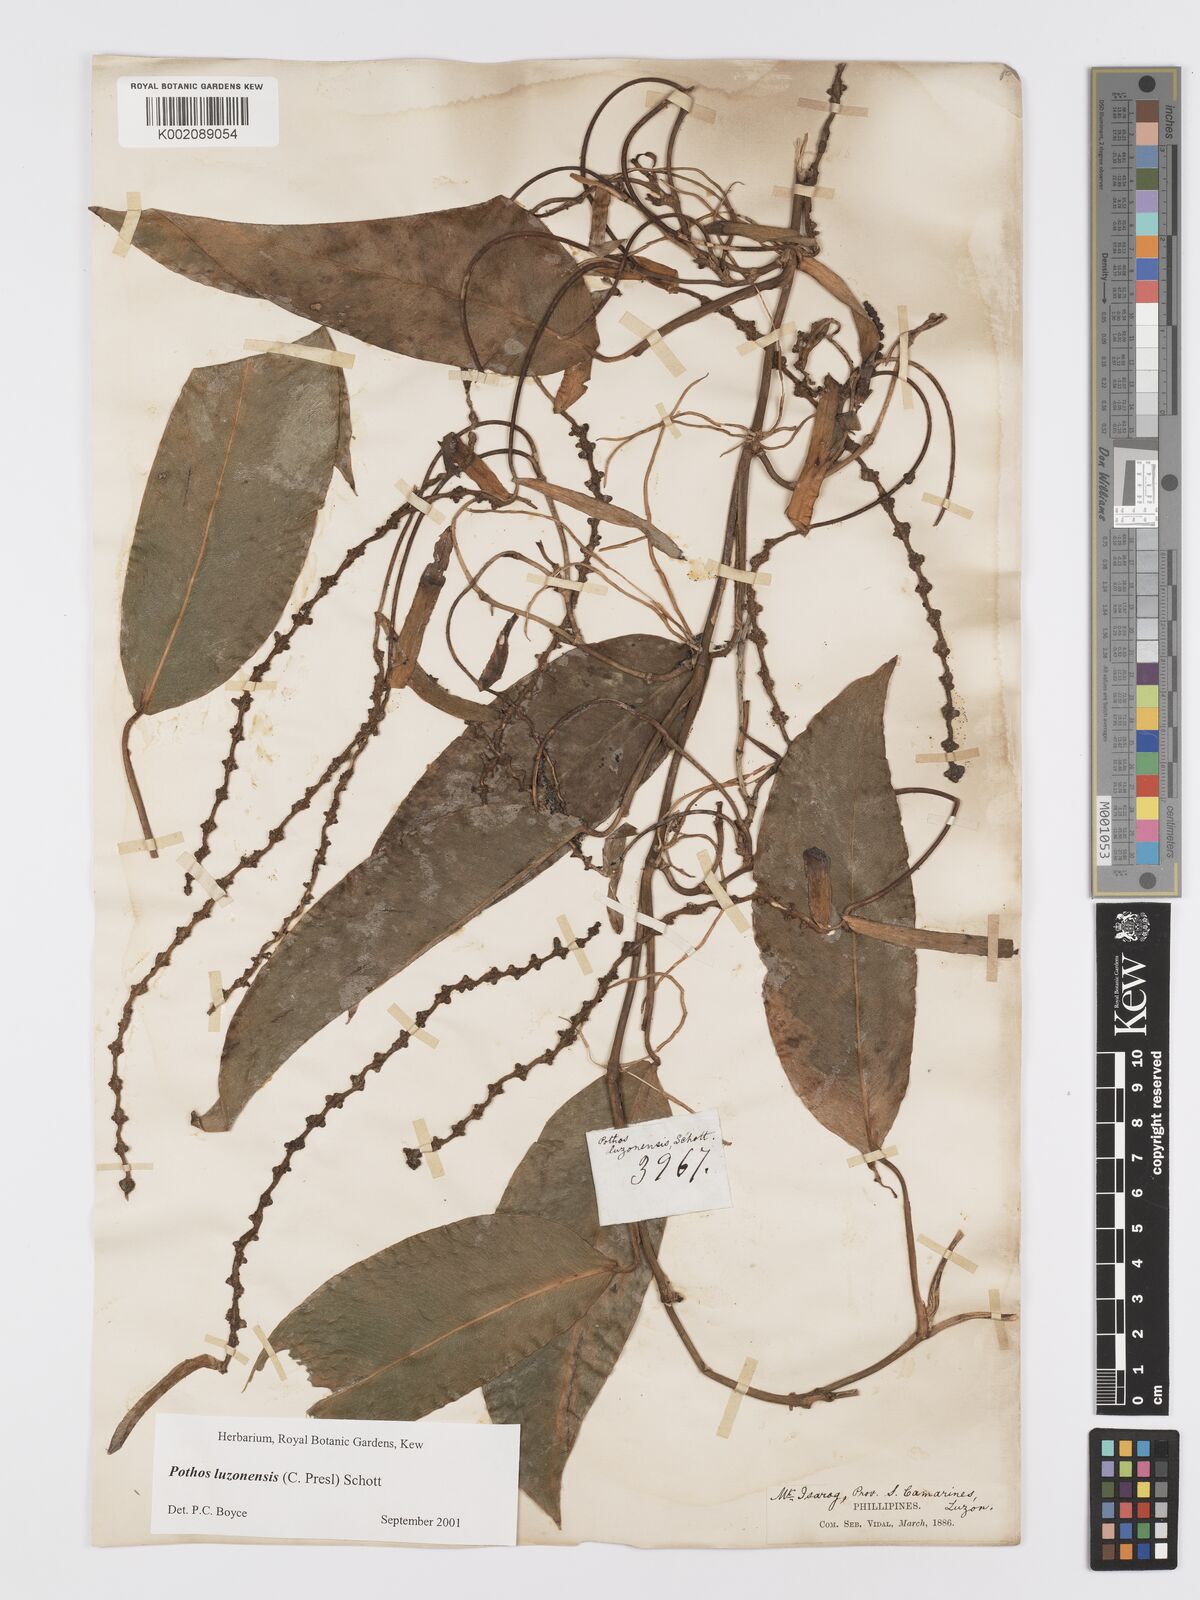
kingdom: Plantae
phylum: Tracheophyta
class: Liliopsida
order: Alismatales
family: Araceae
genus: Pothos
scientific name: Pothos luzonensis
